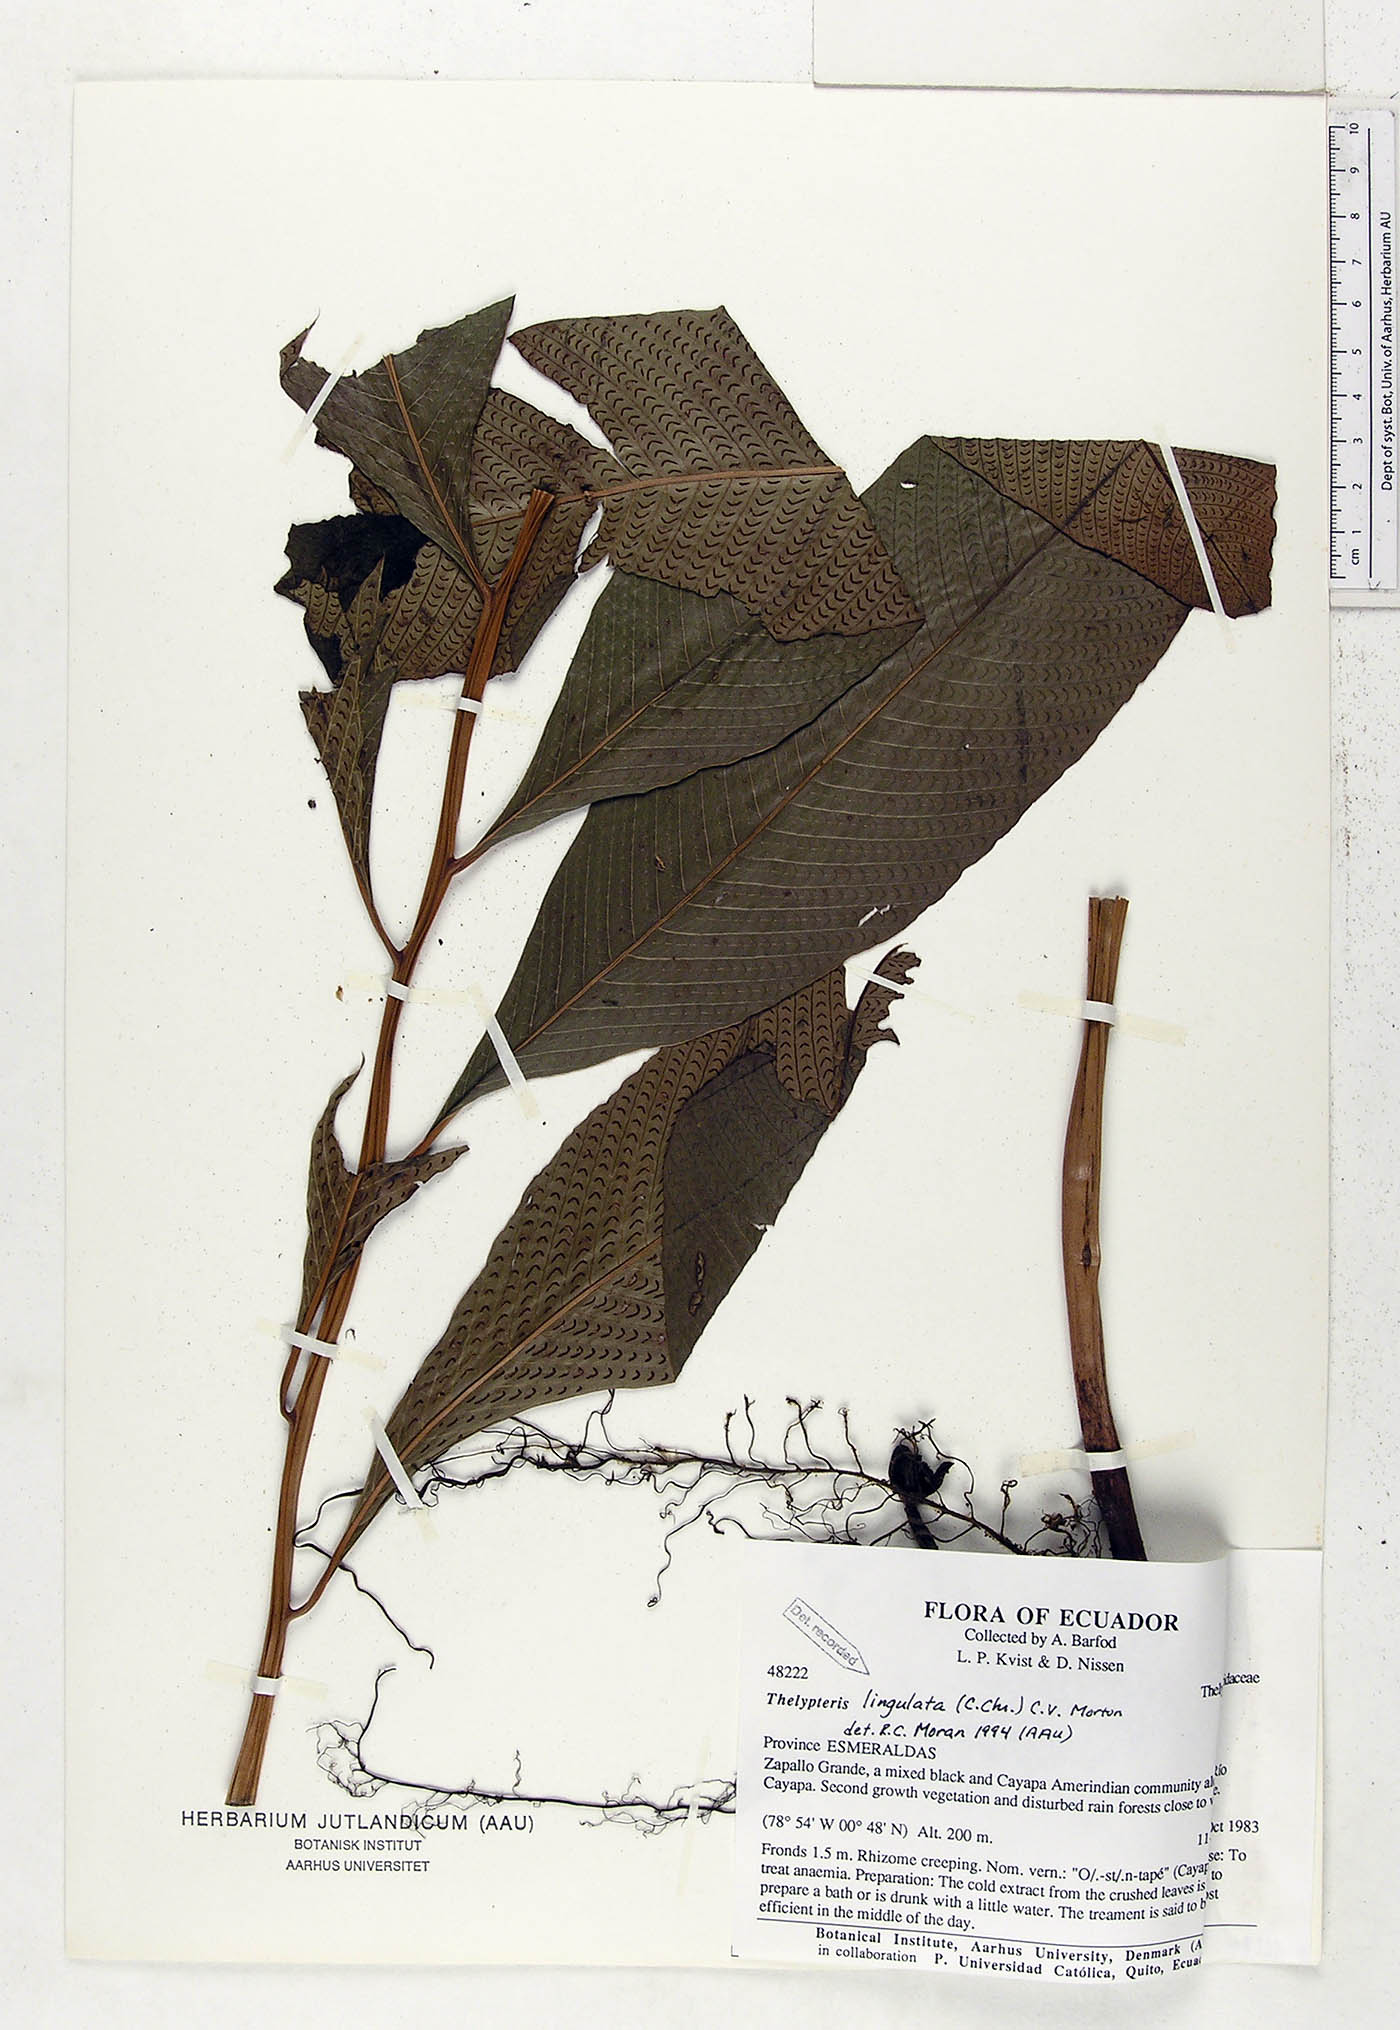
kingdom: Plantae
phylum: Tracheophyta
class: Polypodiopsida
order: Polypodiales
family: Thelypteridaceae
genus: Meniscium
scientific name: Meniscium lingulatum
